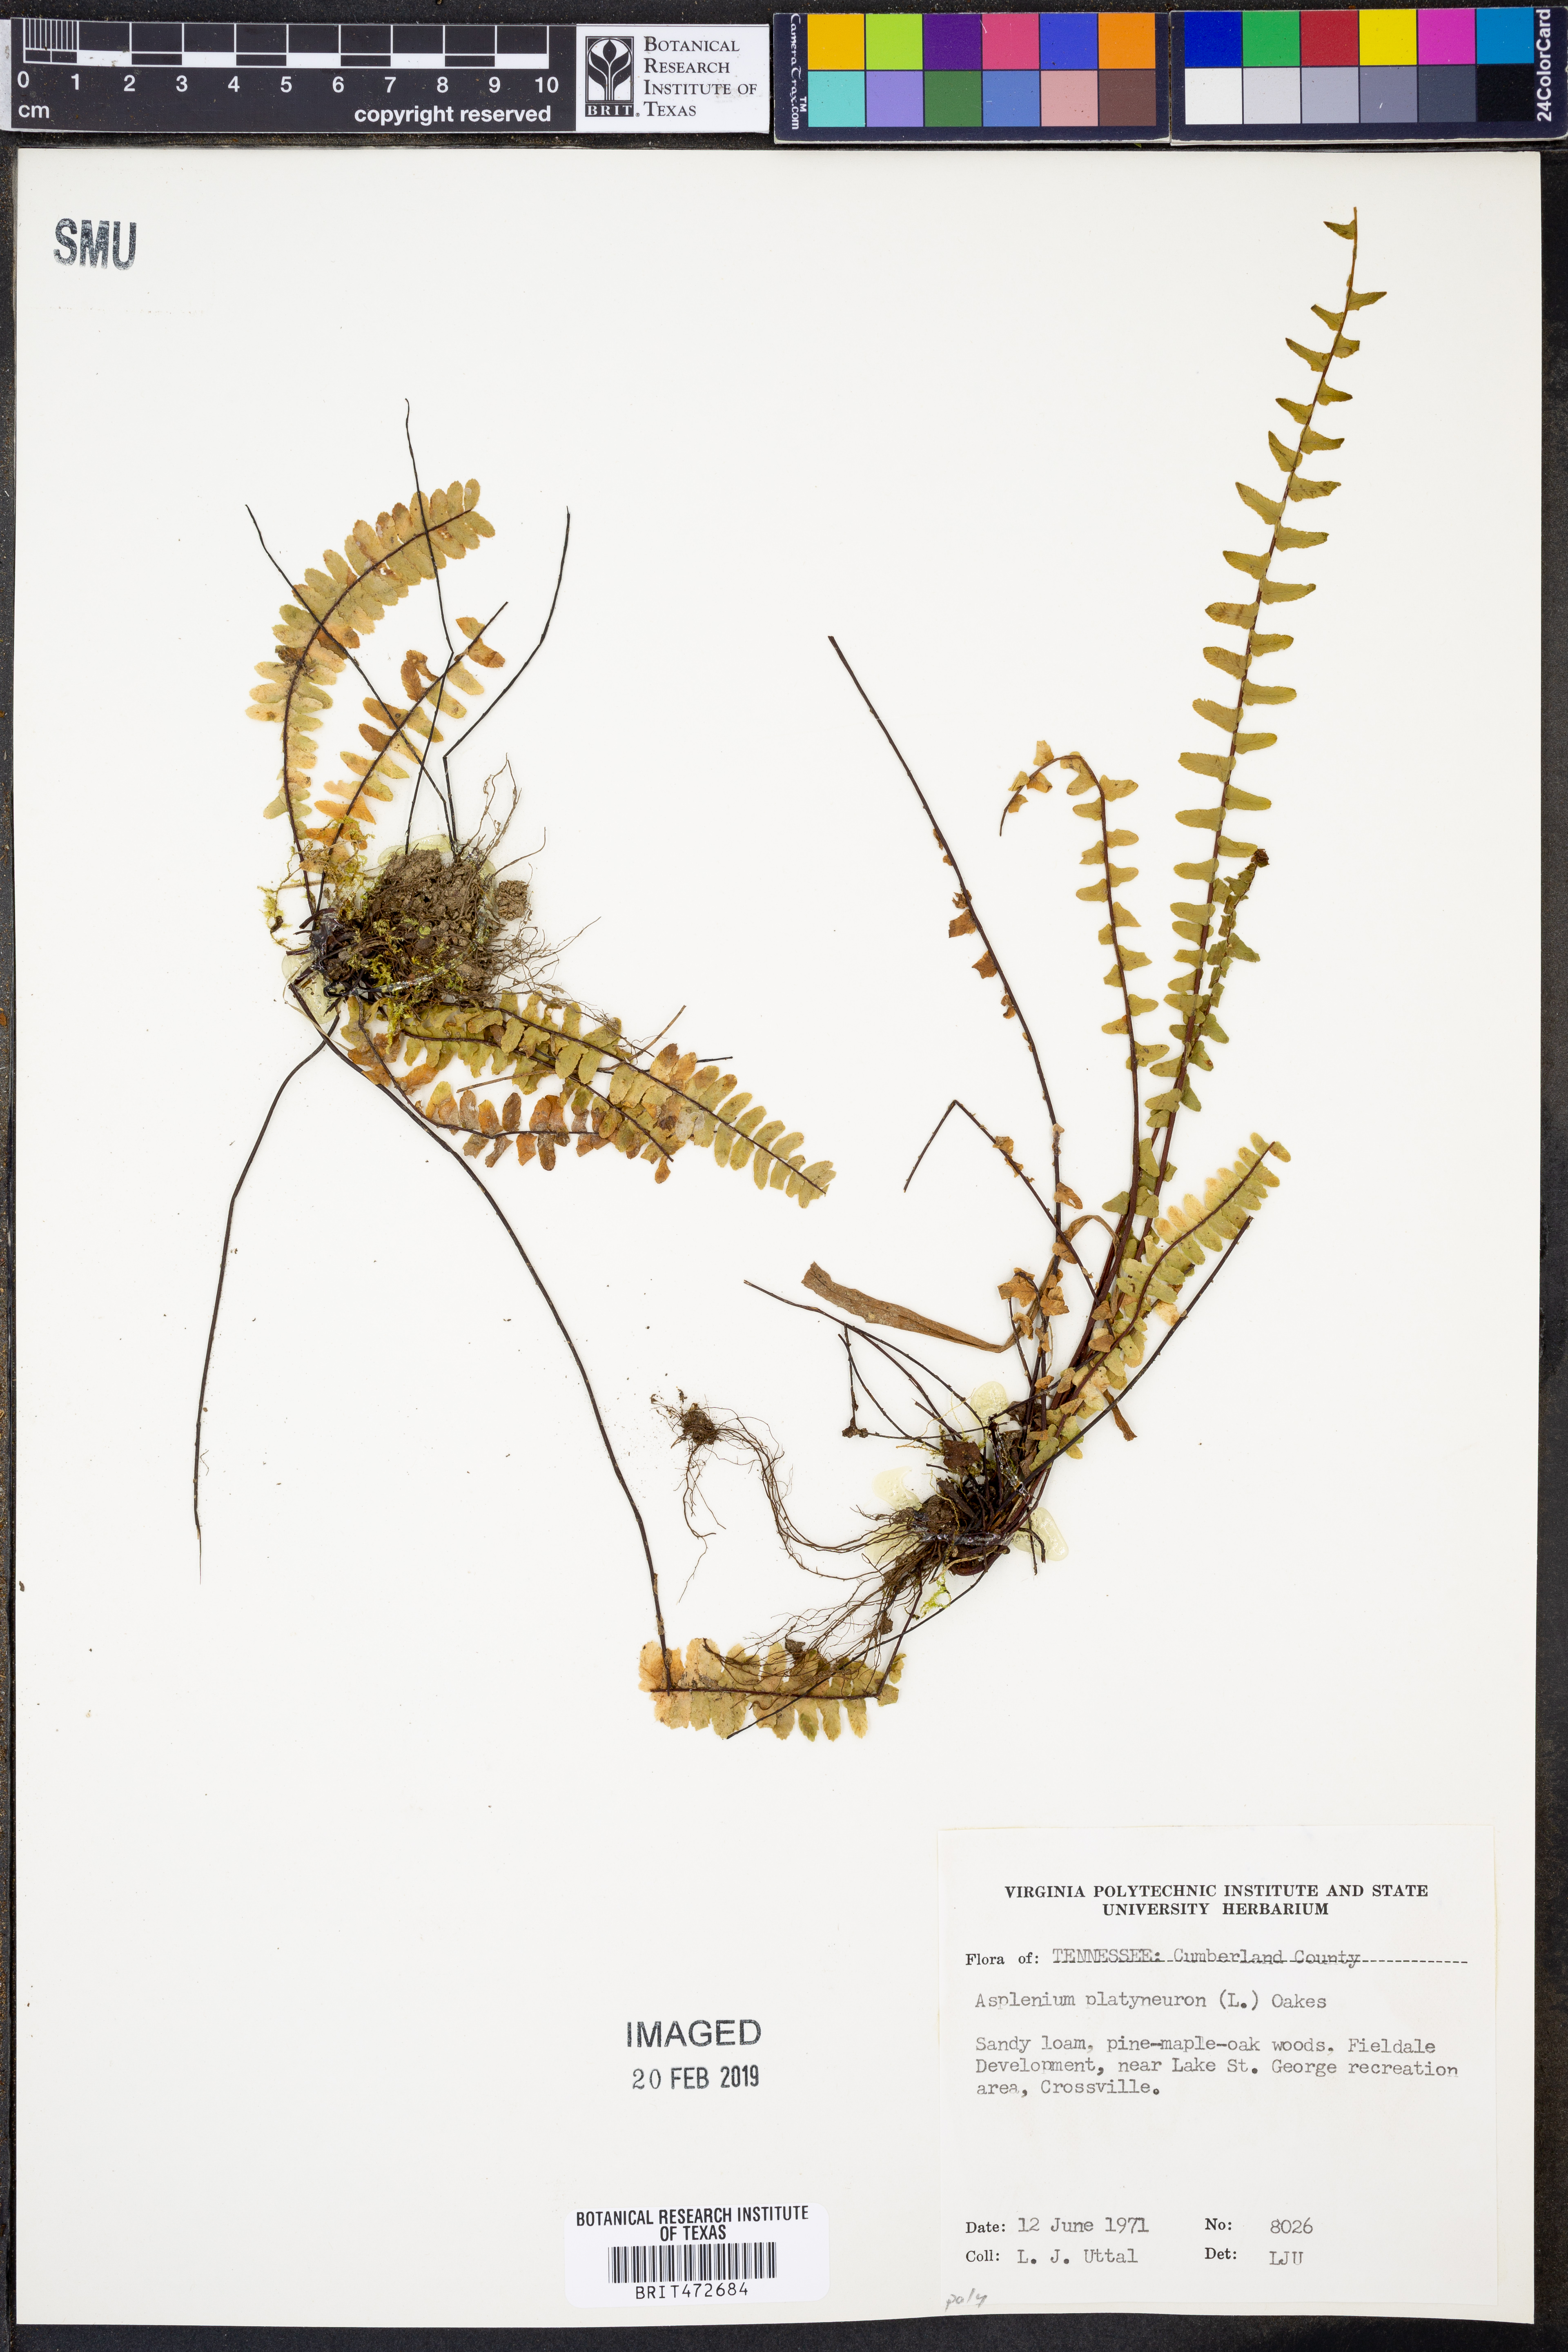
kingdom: Plantae
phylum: Tracheophyta
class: Polypodiopsida
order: Polypodiales
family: Aspleniaceae
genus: Asplenium
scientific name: Asplenium platyneuron
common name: Ebony spleenwort
